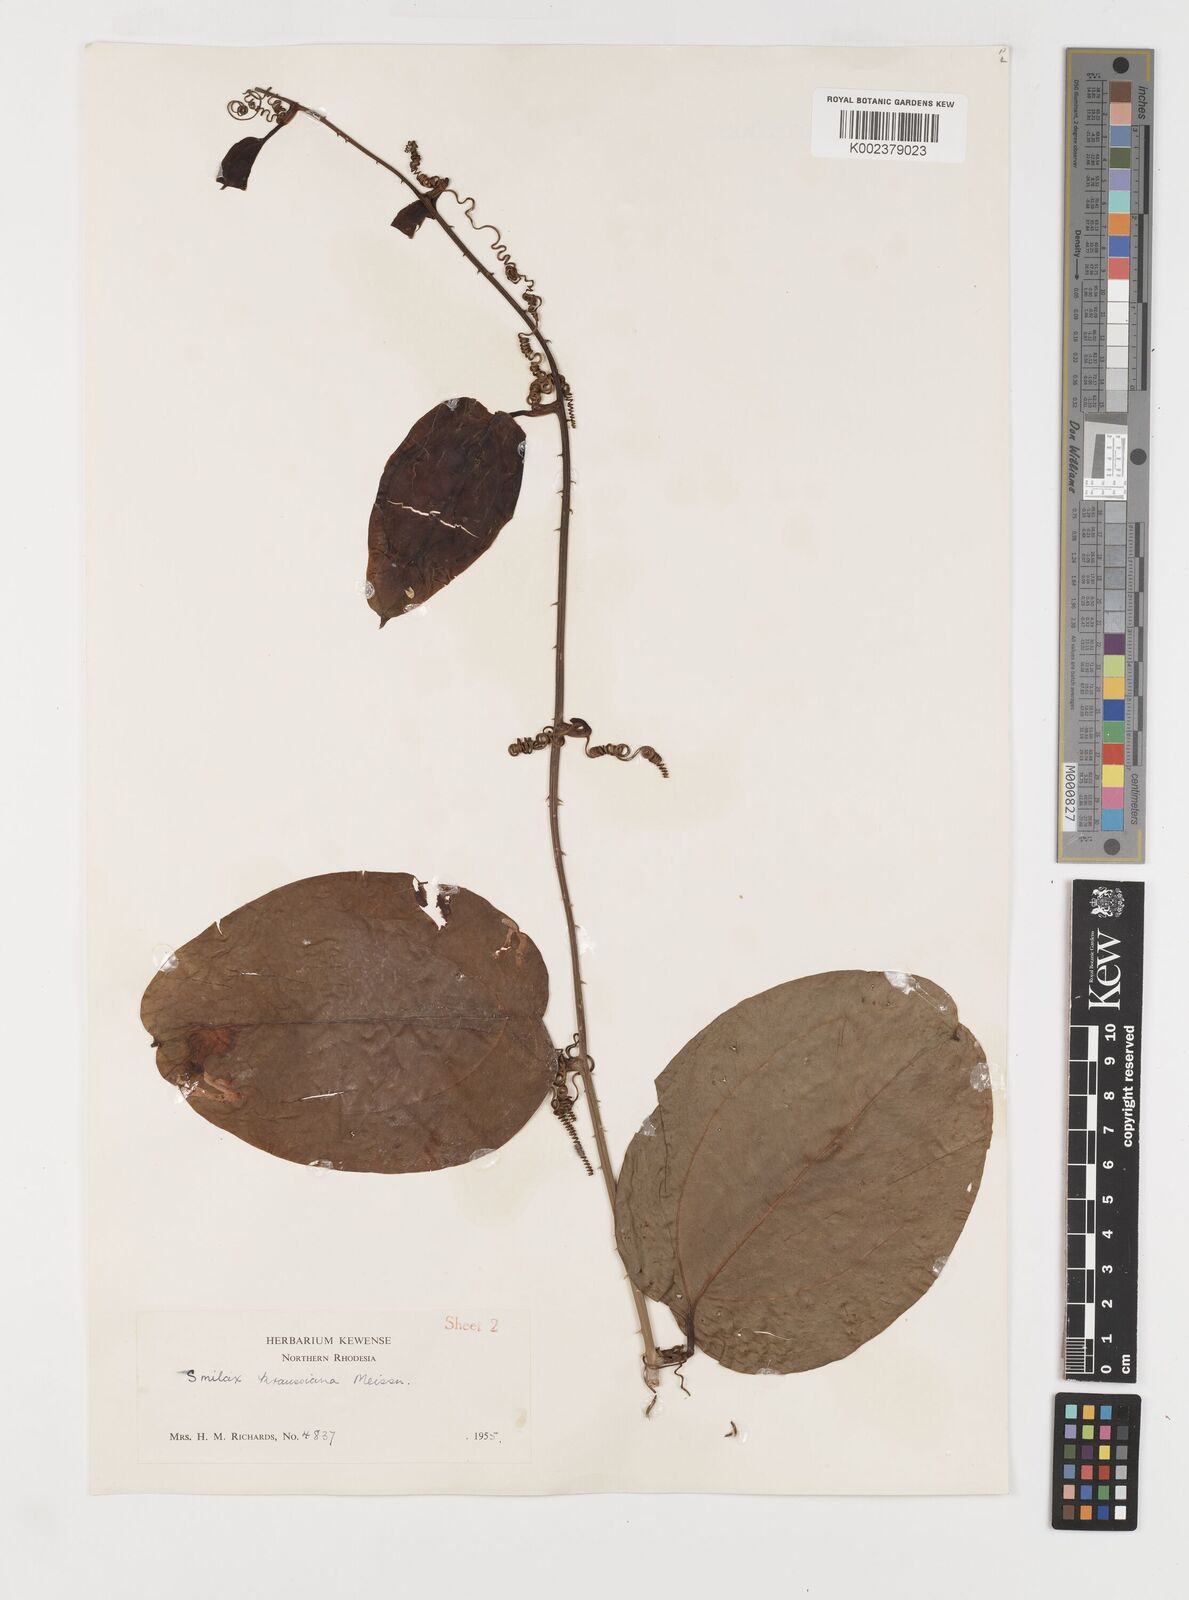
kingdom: Plantae
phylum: Tracheophyta
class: Liliopsida
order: Liliales
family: Smilacaceae
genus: Smilax
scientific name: Smilax anceps
